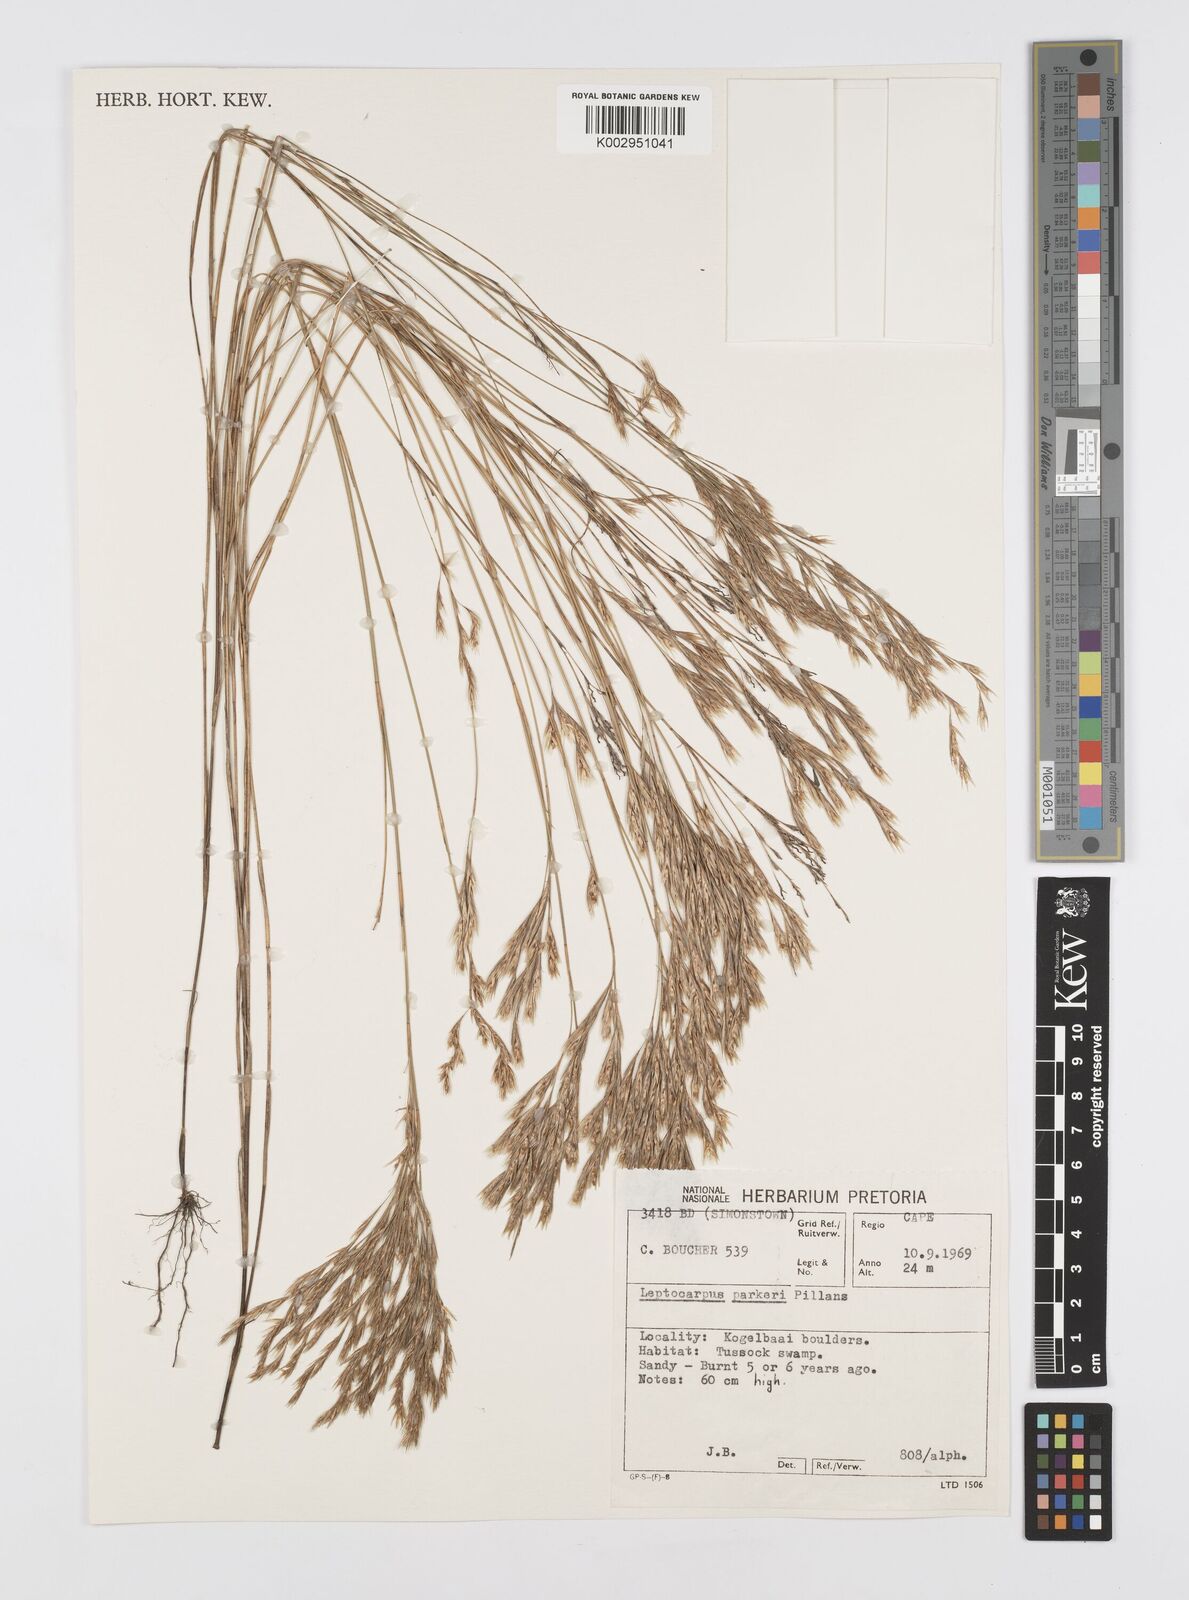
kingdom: Plantae
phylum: Tracheophyta
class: Liliopsida
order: Poales
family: Restionaceae
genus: Restio
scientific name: Restio festuciformis
